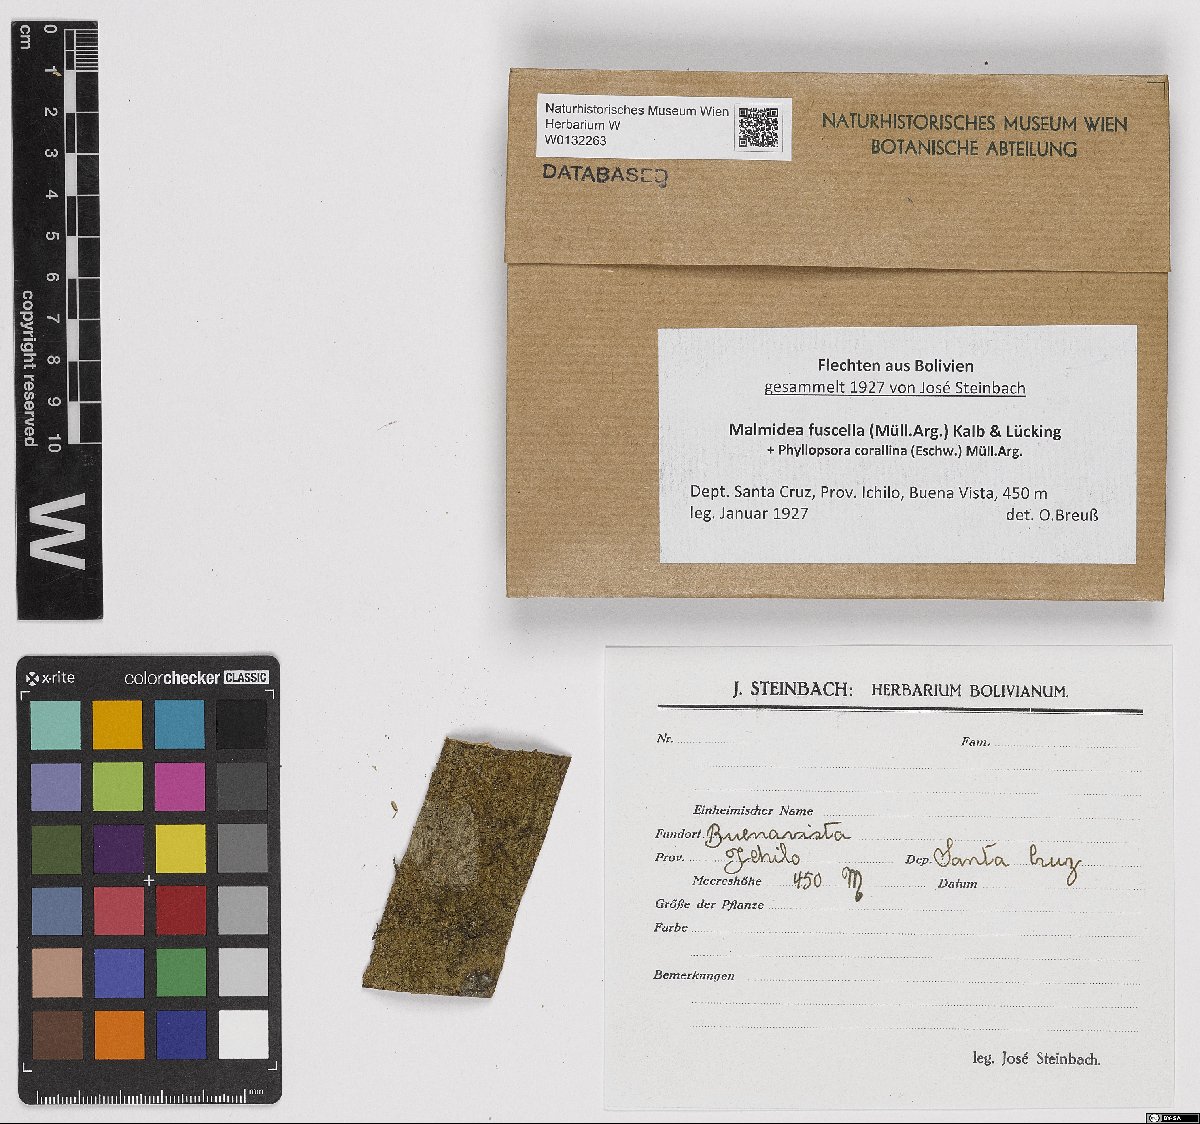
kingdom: Fungi
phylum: Ascomycota
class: Lecanoromycetes
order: Lecanorales
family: Malmideaceae
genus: Malmidea
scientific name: Malmidea fuscella
